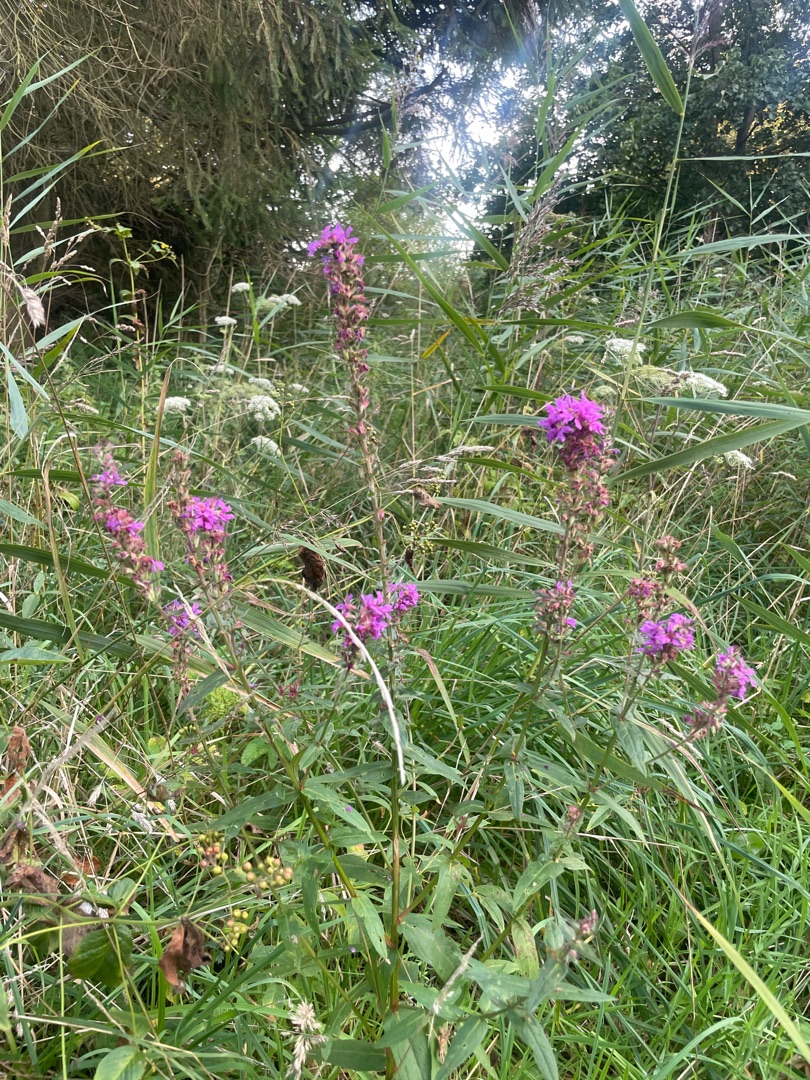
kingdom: Plantae
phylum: Tracheophyta
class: Magnoliopsida
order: Myrtales
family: Lythraceae
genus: Lythrum
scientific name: Lythrum salicaria
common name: Kattehale
